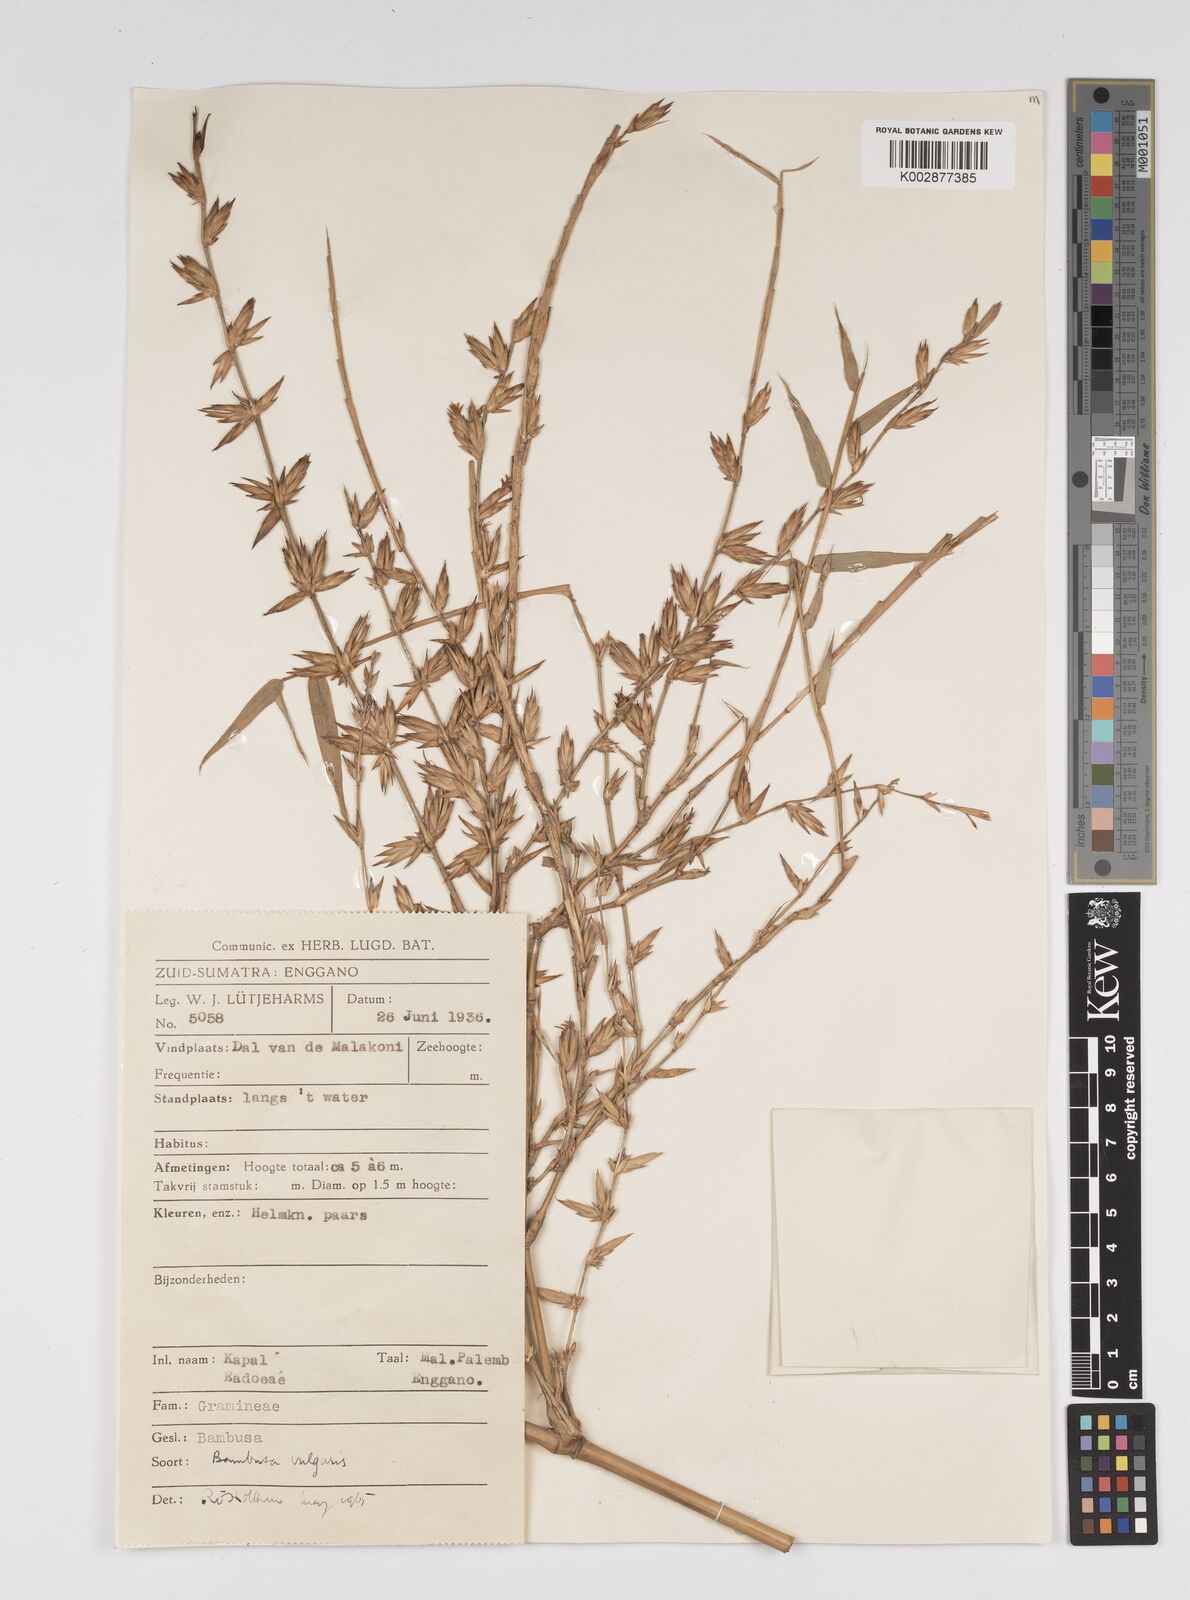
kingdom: Plantae
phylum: Tracheophyta
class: Liliopsida
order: Poales
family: Poaceae
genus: Bambusa
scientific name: Bambusa
